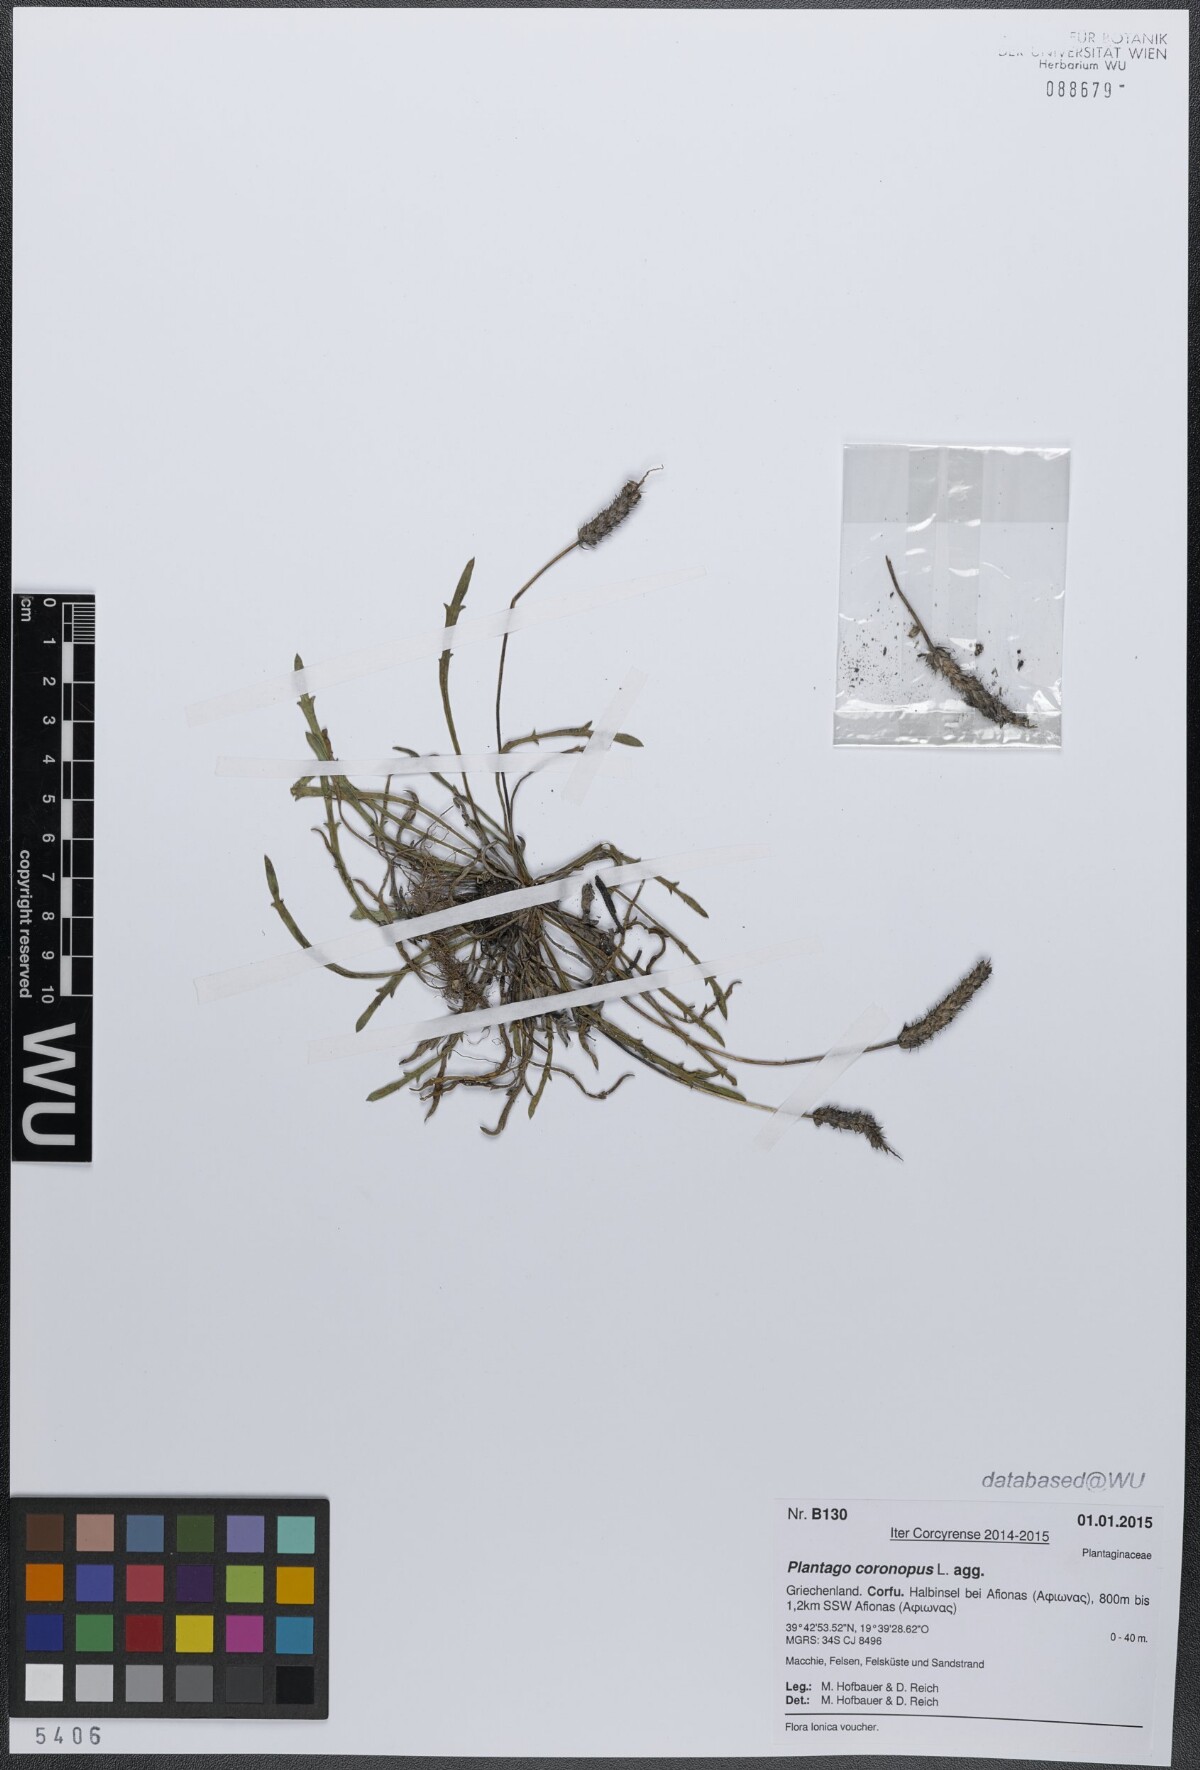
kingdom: Plantae
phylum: Tracheophyta
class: Magnoliopsida
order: Lamiales
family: Plantaginaceae
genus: Plantago
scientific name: Plantago coronopus
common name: Buck's-horn plantain
